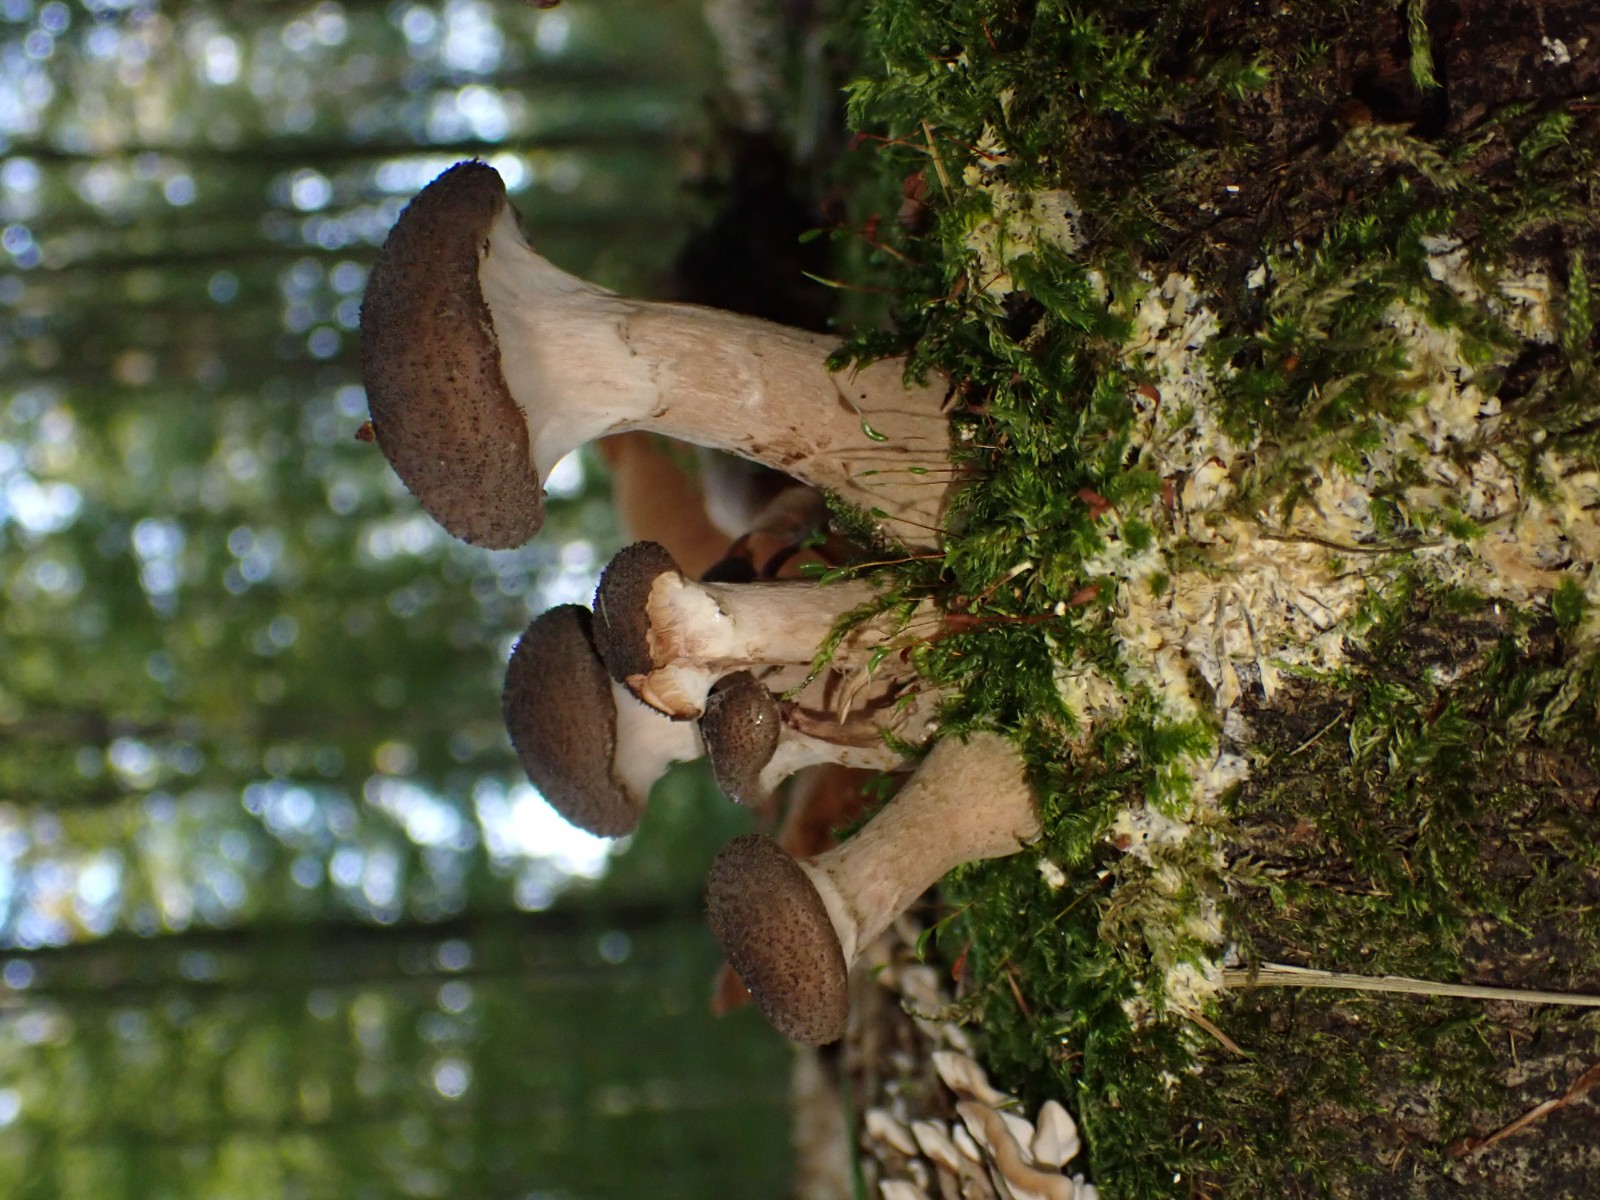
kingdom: Fungi
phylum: Basidiomycota
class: Agaricomycetes
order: Agaricales
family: Physalacriaceae
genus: Armillaria
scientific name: Armillaria lutea
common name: køllestokket honningsvamp
